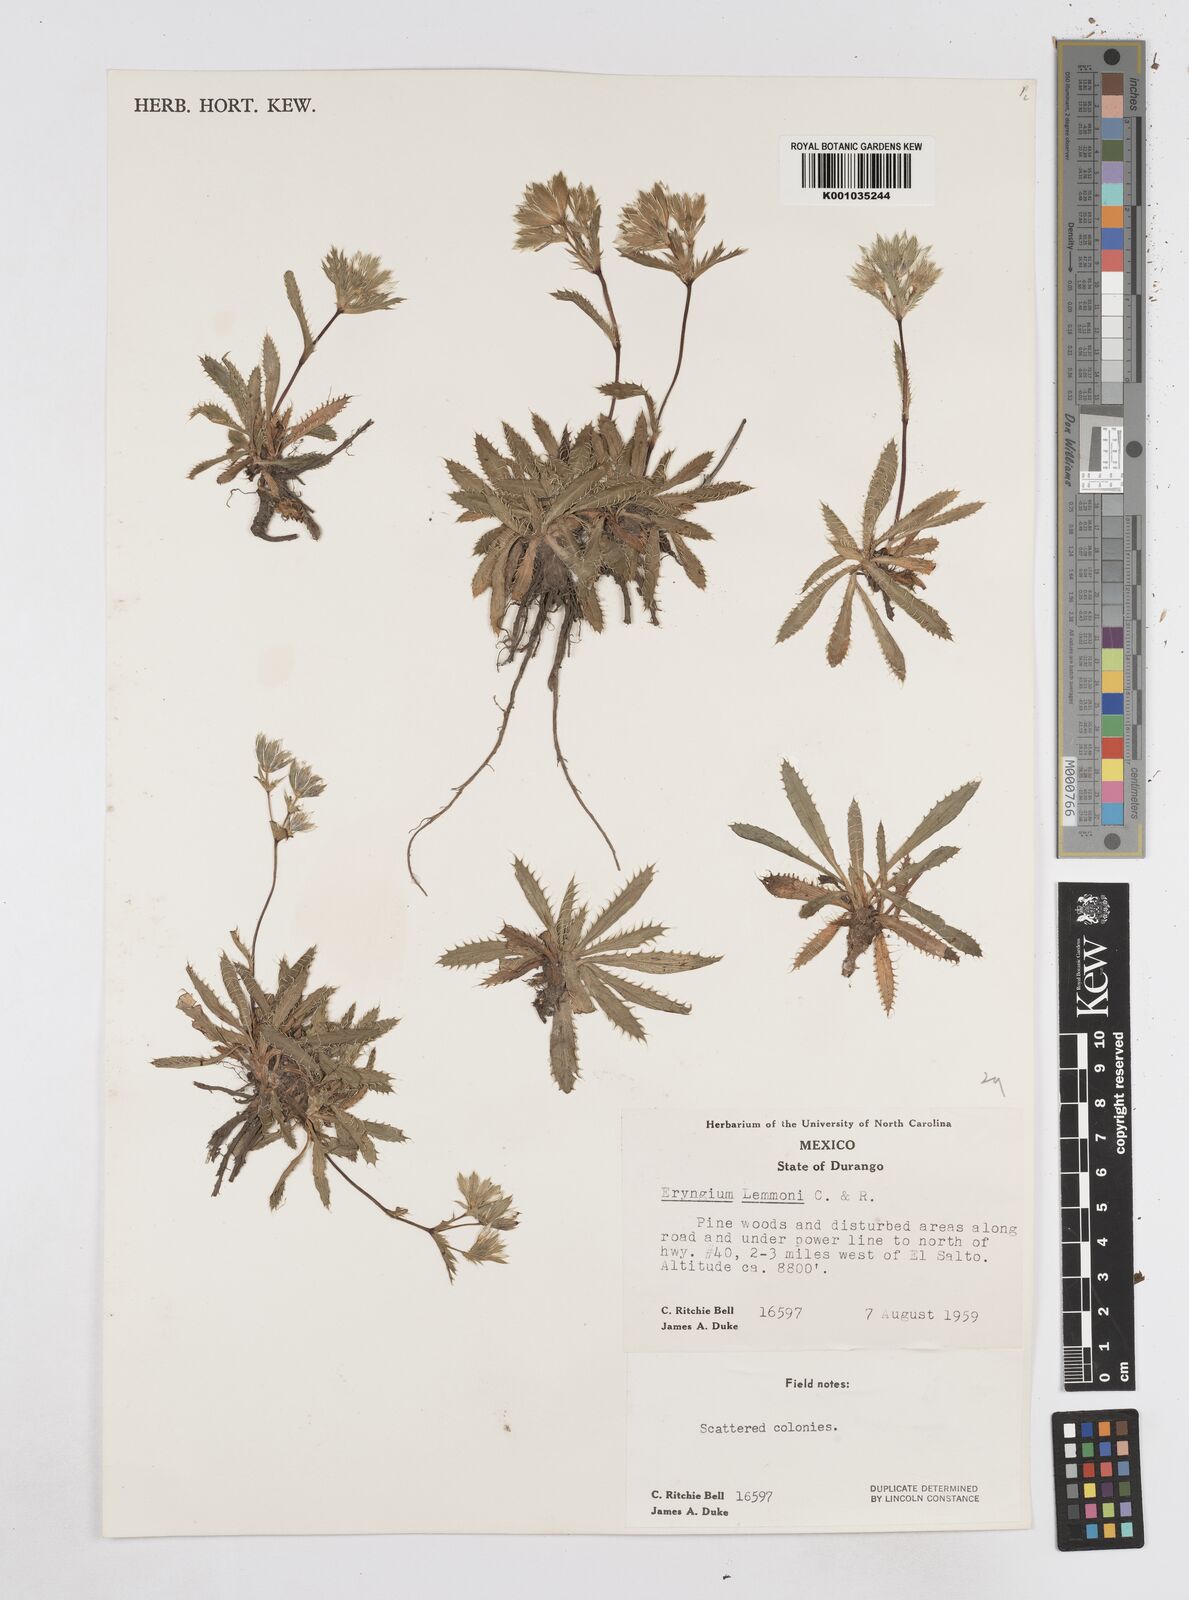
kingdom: Plantae
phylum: Tracheophyta
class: Magnoliopsida
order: Apiales
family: Apiaceae
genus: Eryngium
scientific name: Eryngium lemmonii
